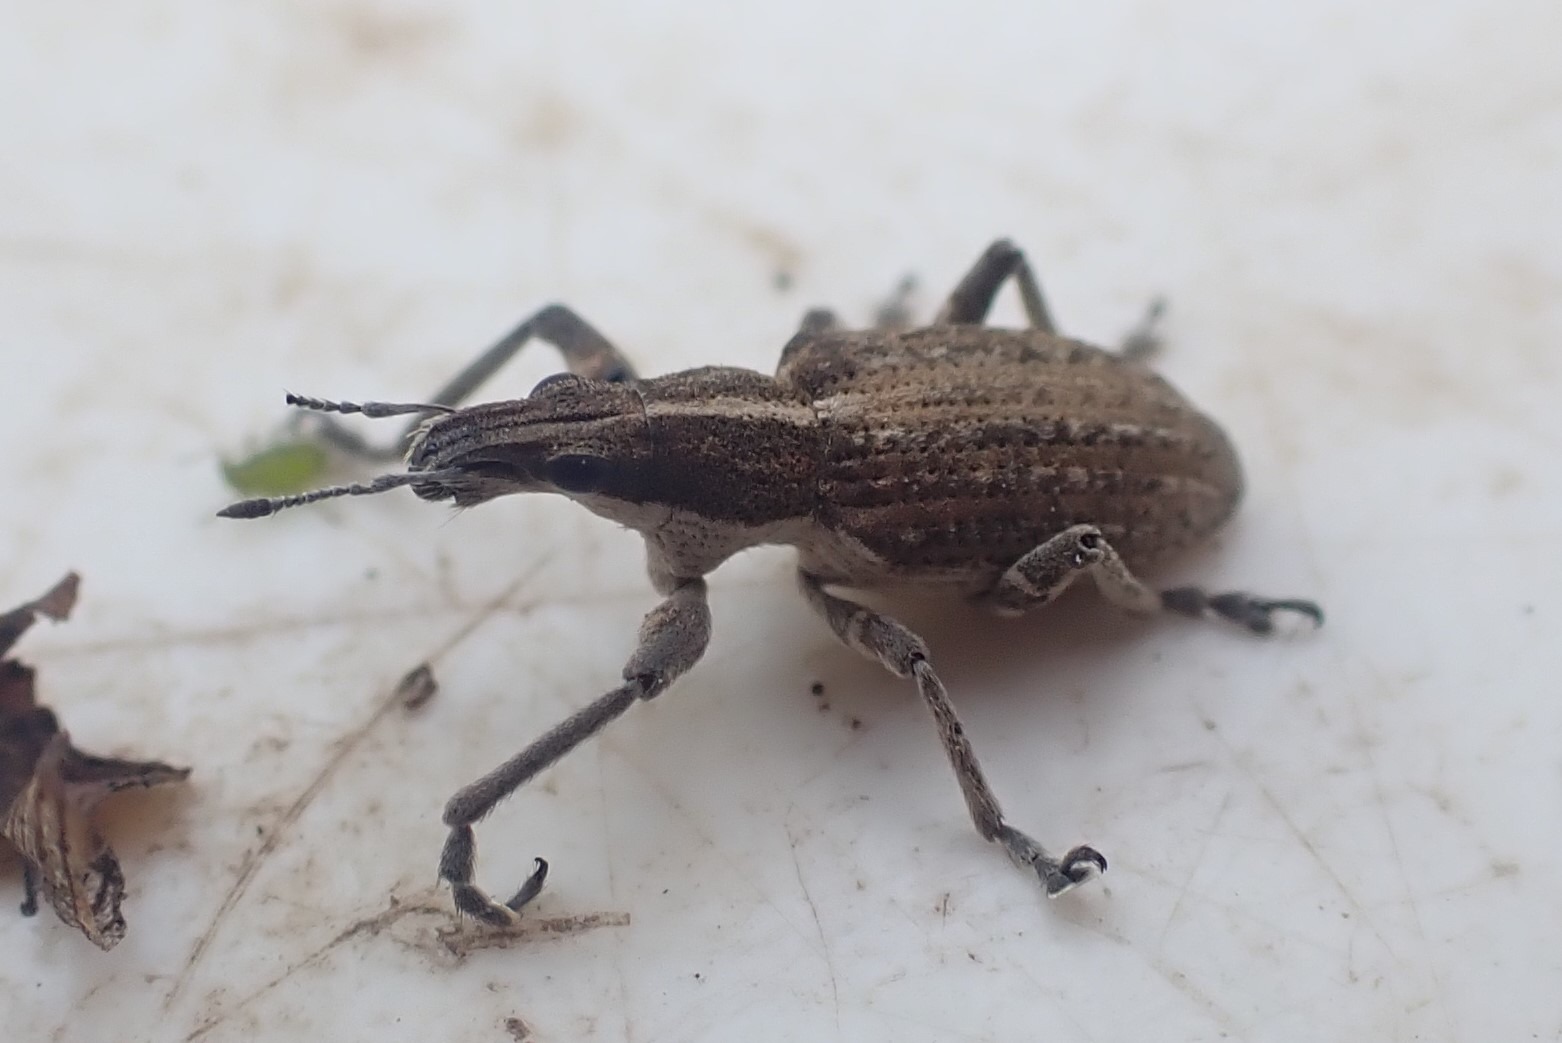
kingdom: Animalia
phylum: Arthropoda
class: Insecta
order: Coleoptera
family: Curculionidae
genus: Charagmus
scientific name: Charagmus gressorius
